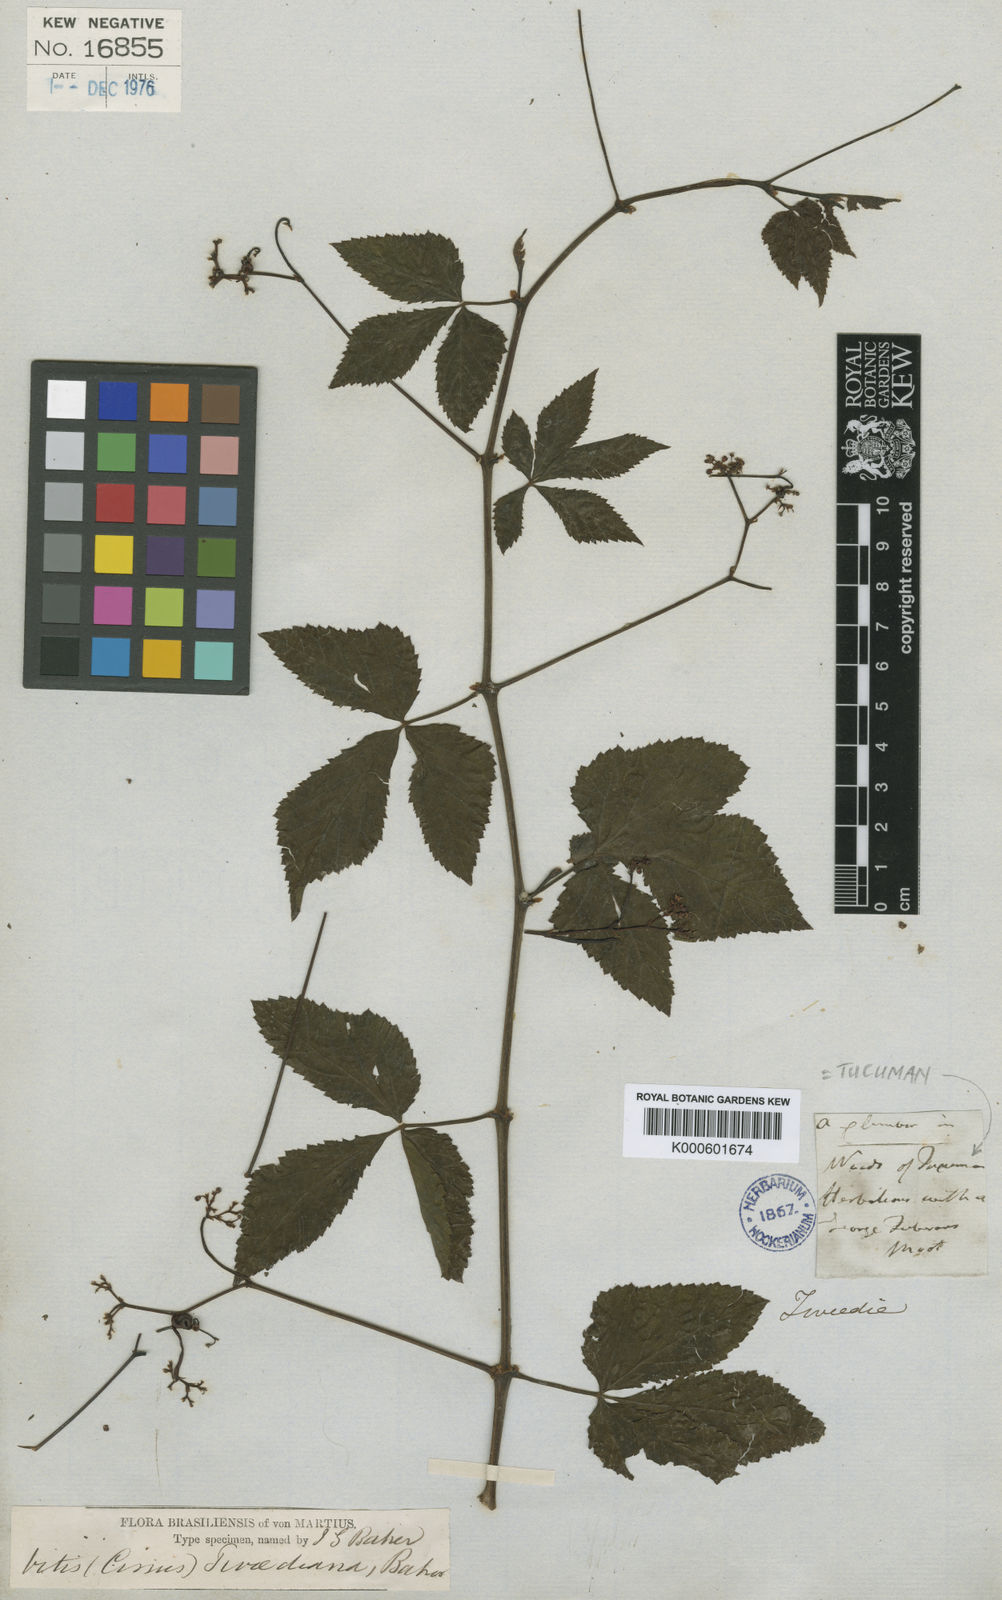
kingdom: Plantae
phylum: Tracheophyta
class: Magnoliopsida
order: Vitales
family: Vitaceae
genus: Cissus
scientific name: Cissus
